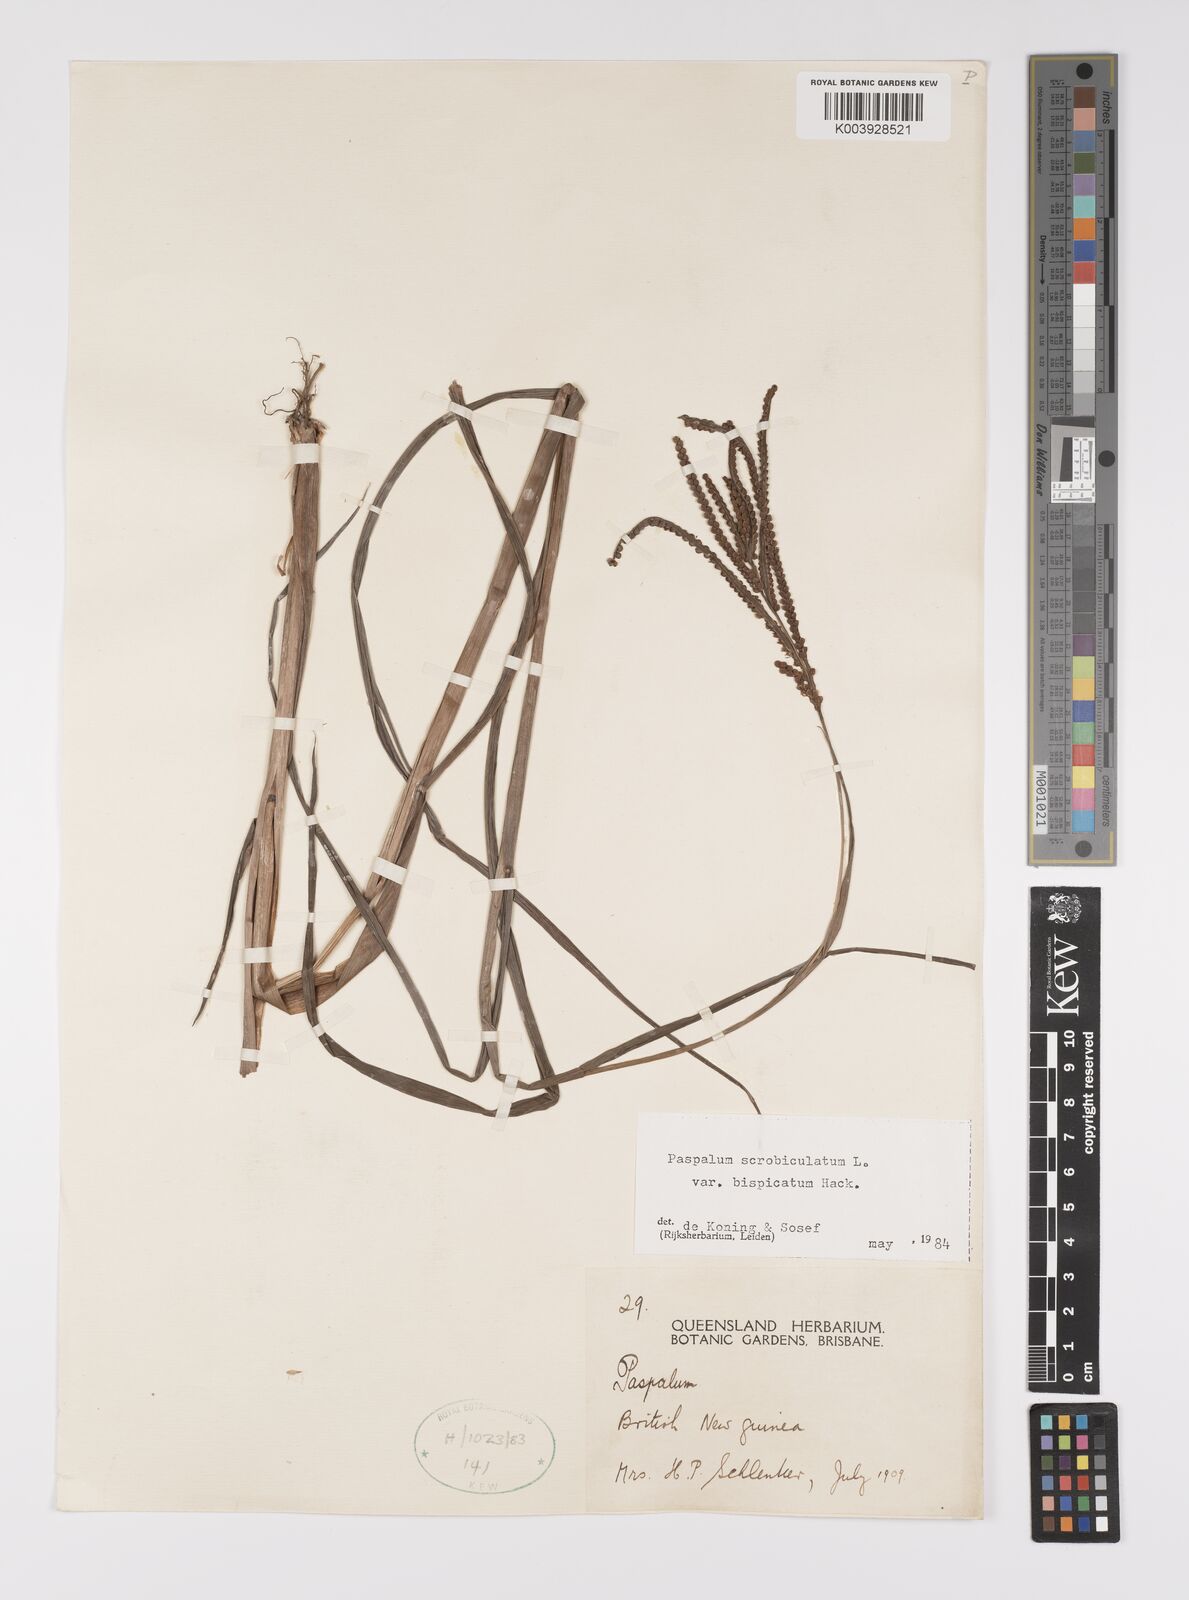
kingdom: Plantae
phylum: Tracheophyta
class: Liliopsida
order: Poales
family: Poaceae
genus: Paspalum
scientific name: Paspalum scrobiculatum
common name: Kodo millet
